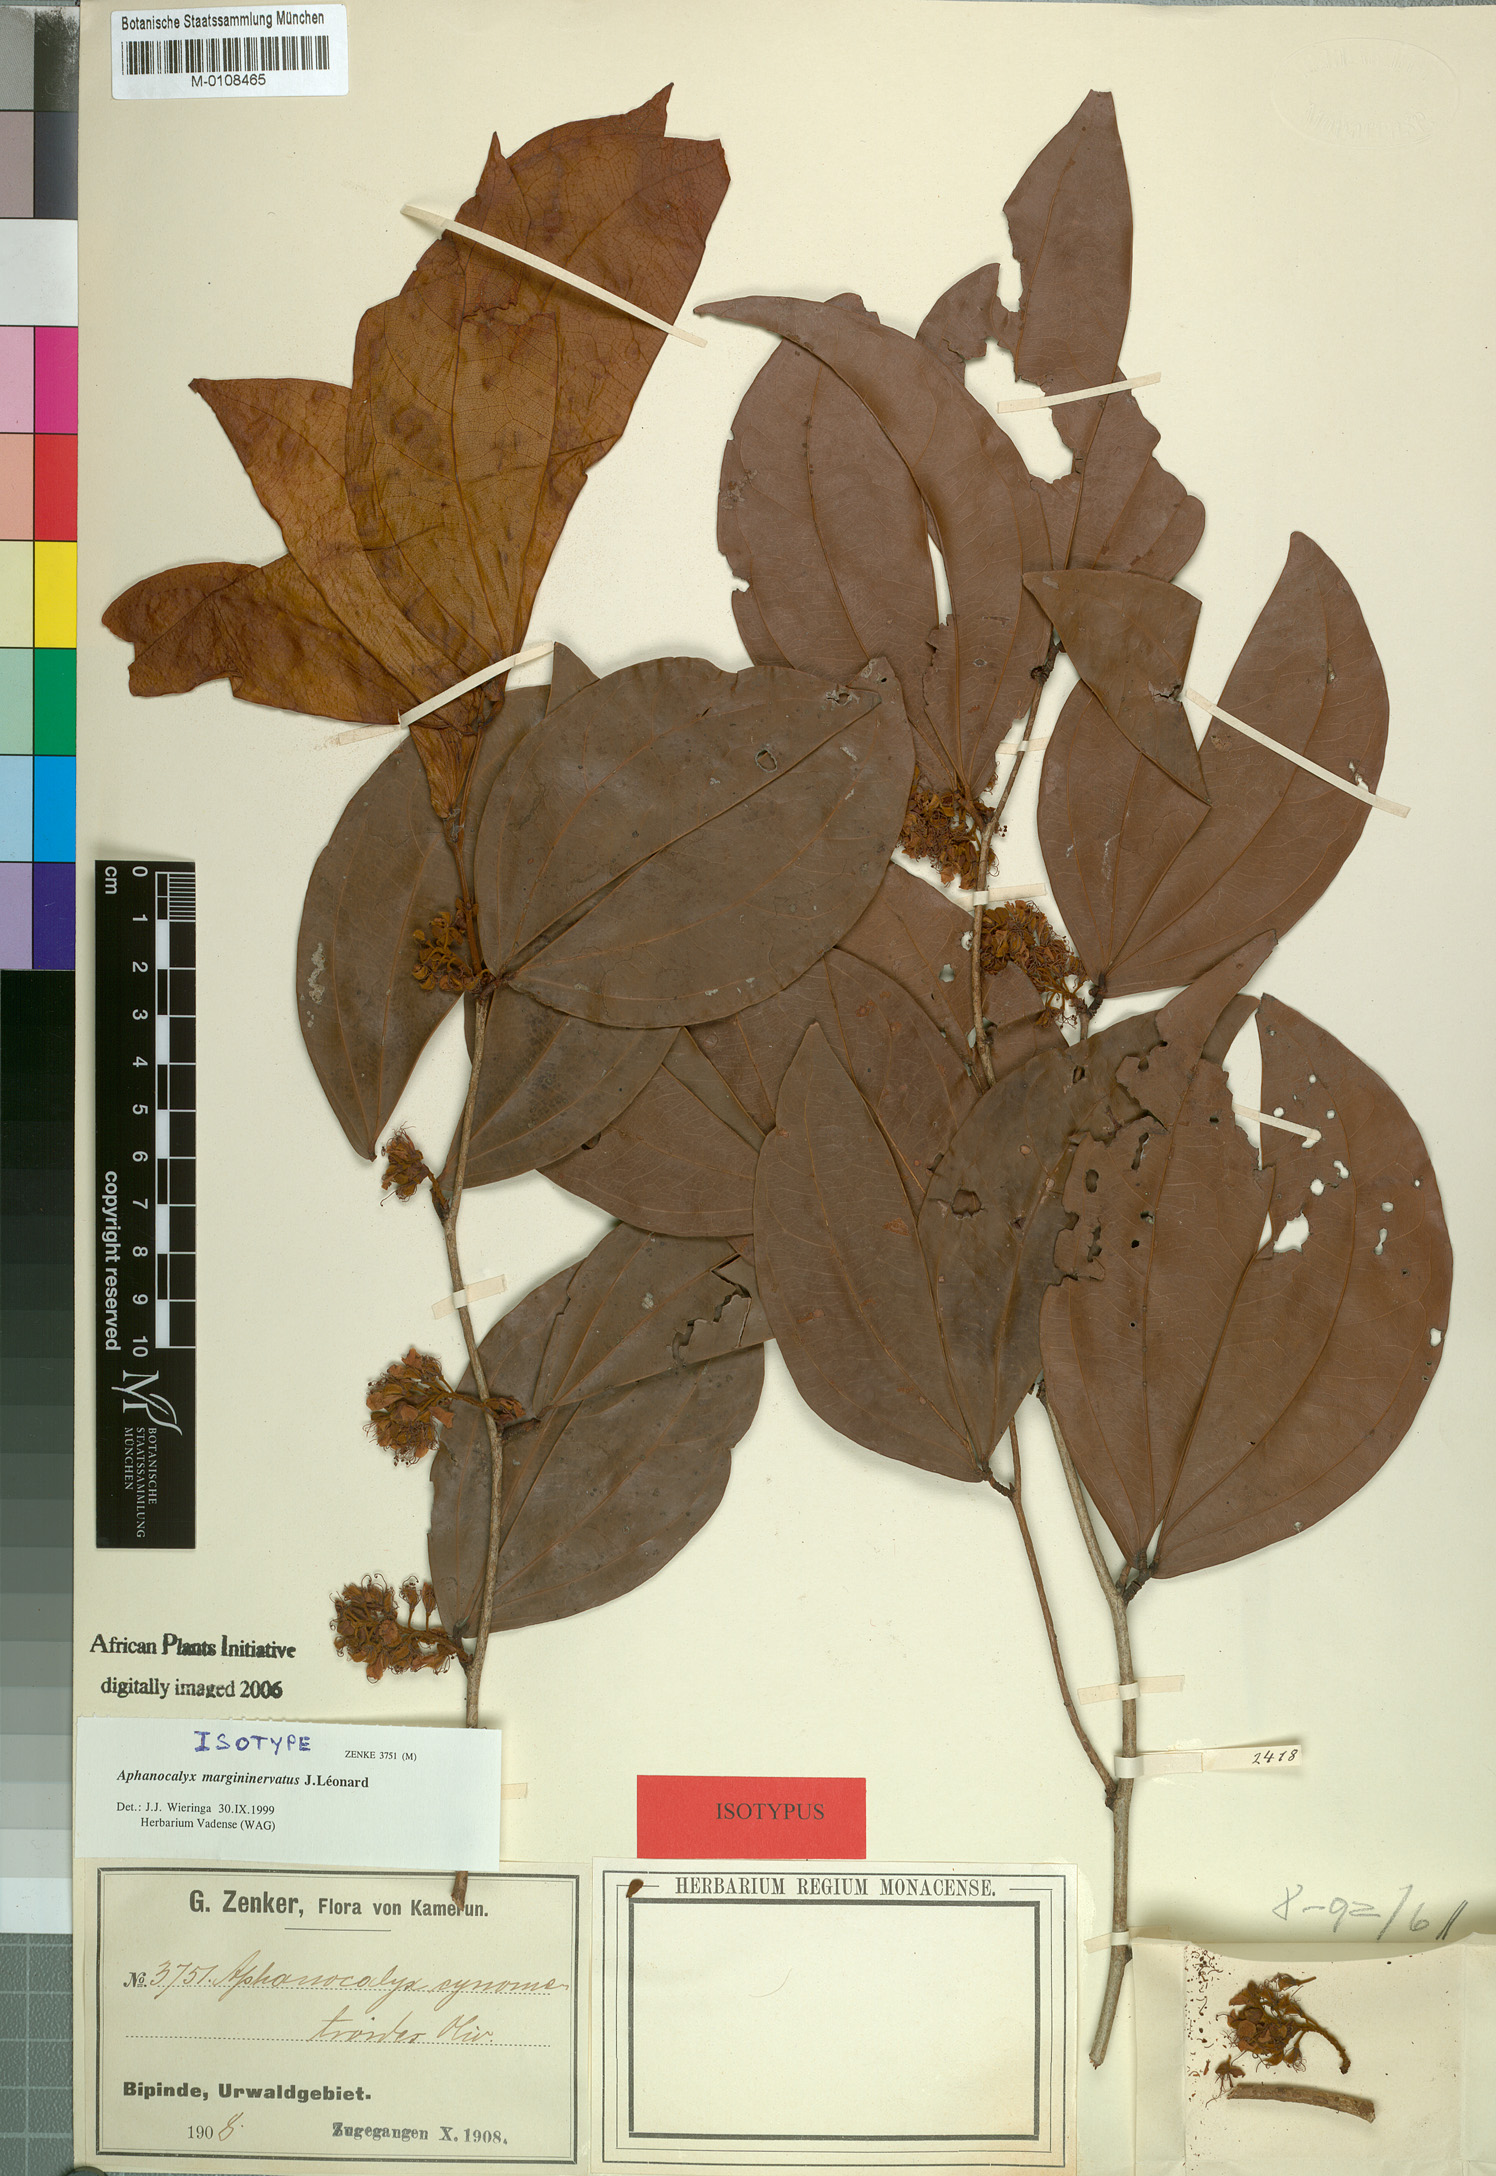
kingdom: Plantae
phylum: Tracheophyta
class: Magnoliopsida
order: Fabales
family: Fabaceae
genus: Aphanocalyx
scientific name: Aphanocalyx margininervatus
